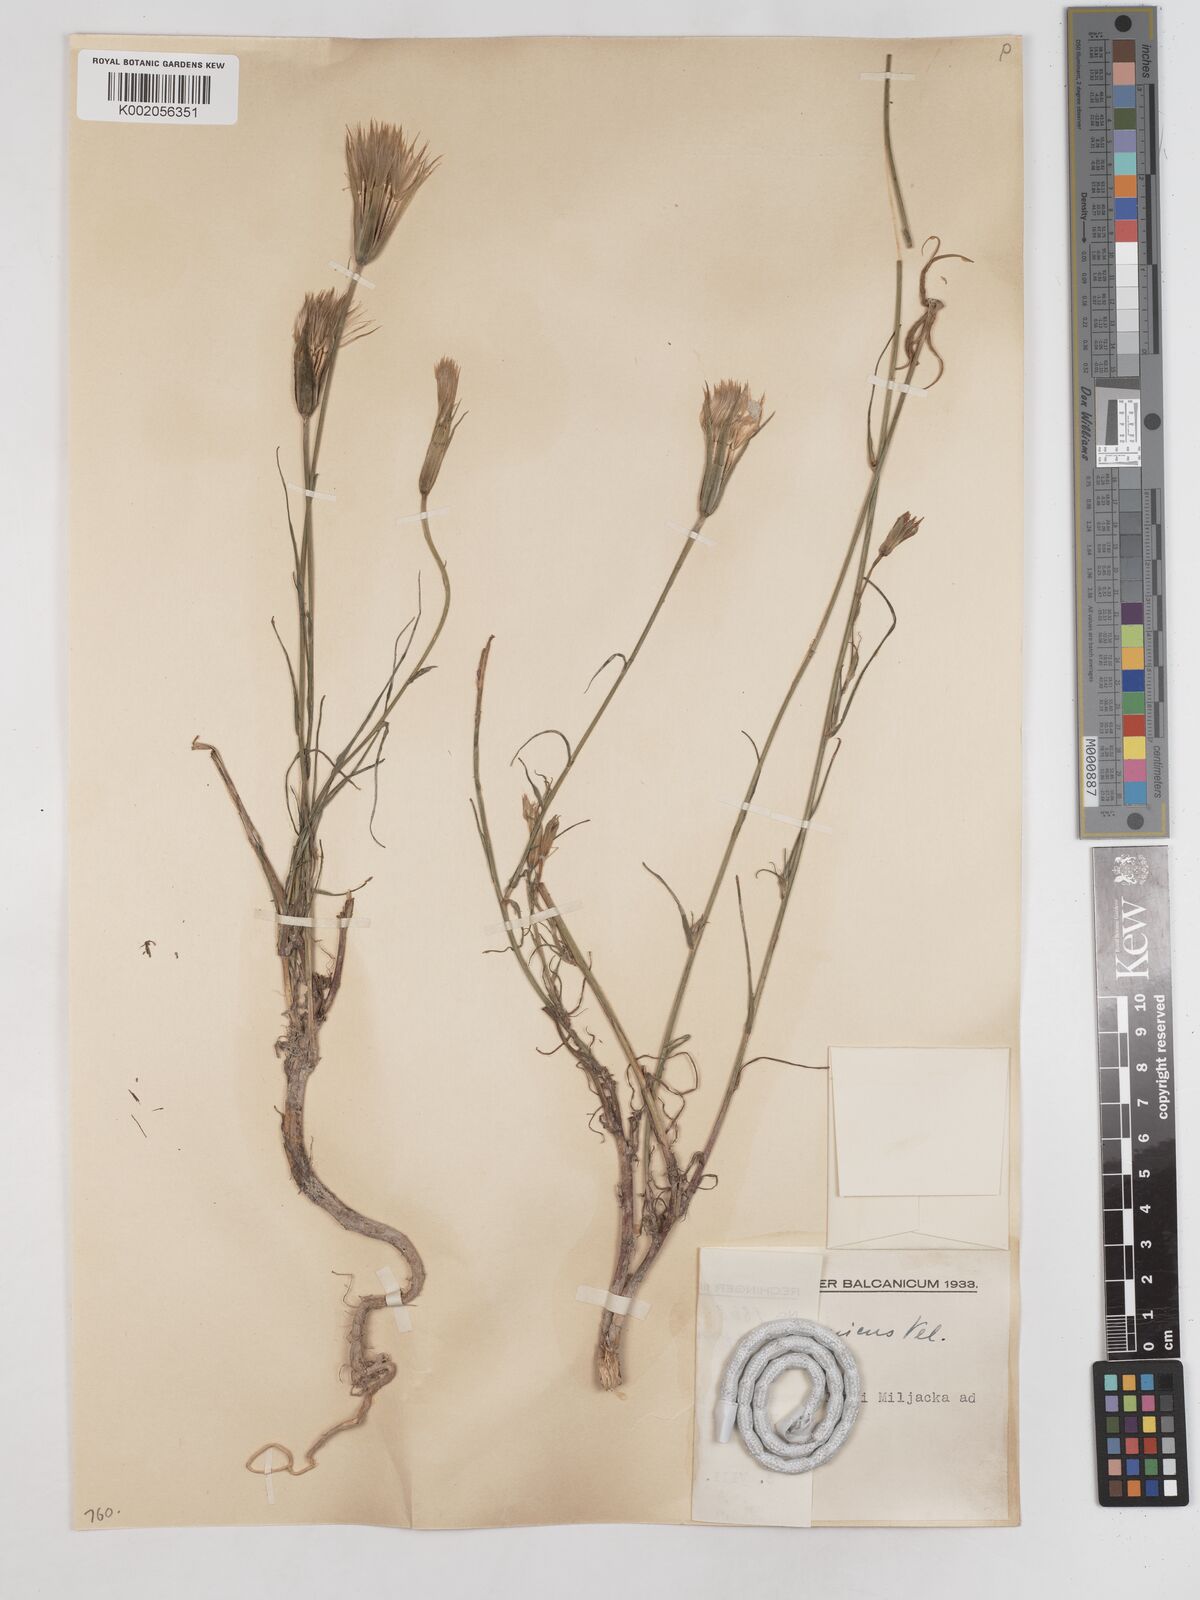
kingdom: Plantae
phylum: Tracheophyta
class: Magnoliopsida
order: Asterales
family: Asteraceae
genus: Tragopogon
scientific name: Tragopogon balcanicus
